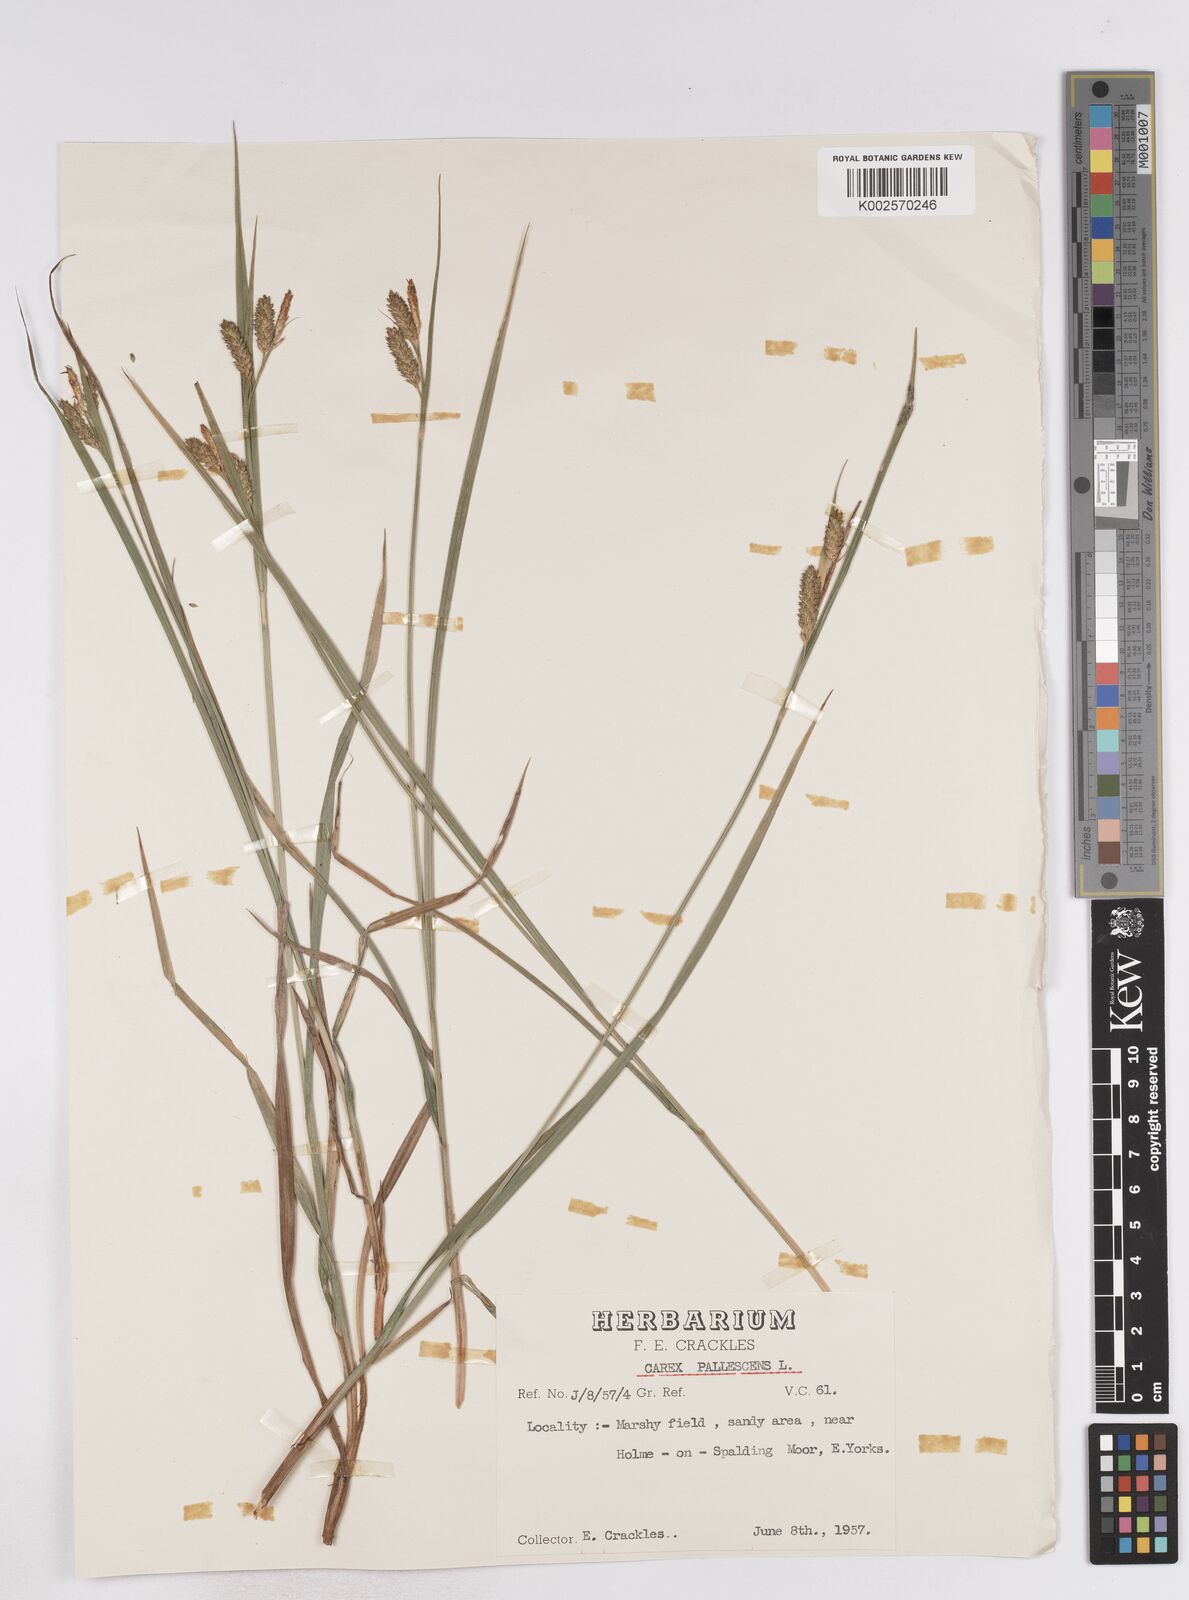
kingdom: Plantae
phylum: Tracheophyta
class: Liliopsida
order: Poales
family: Cyperaceae
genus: Carex
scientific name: Carex pallescens
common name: Pale sedge
